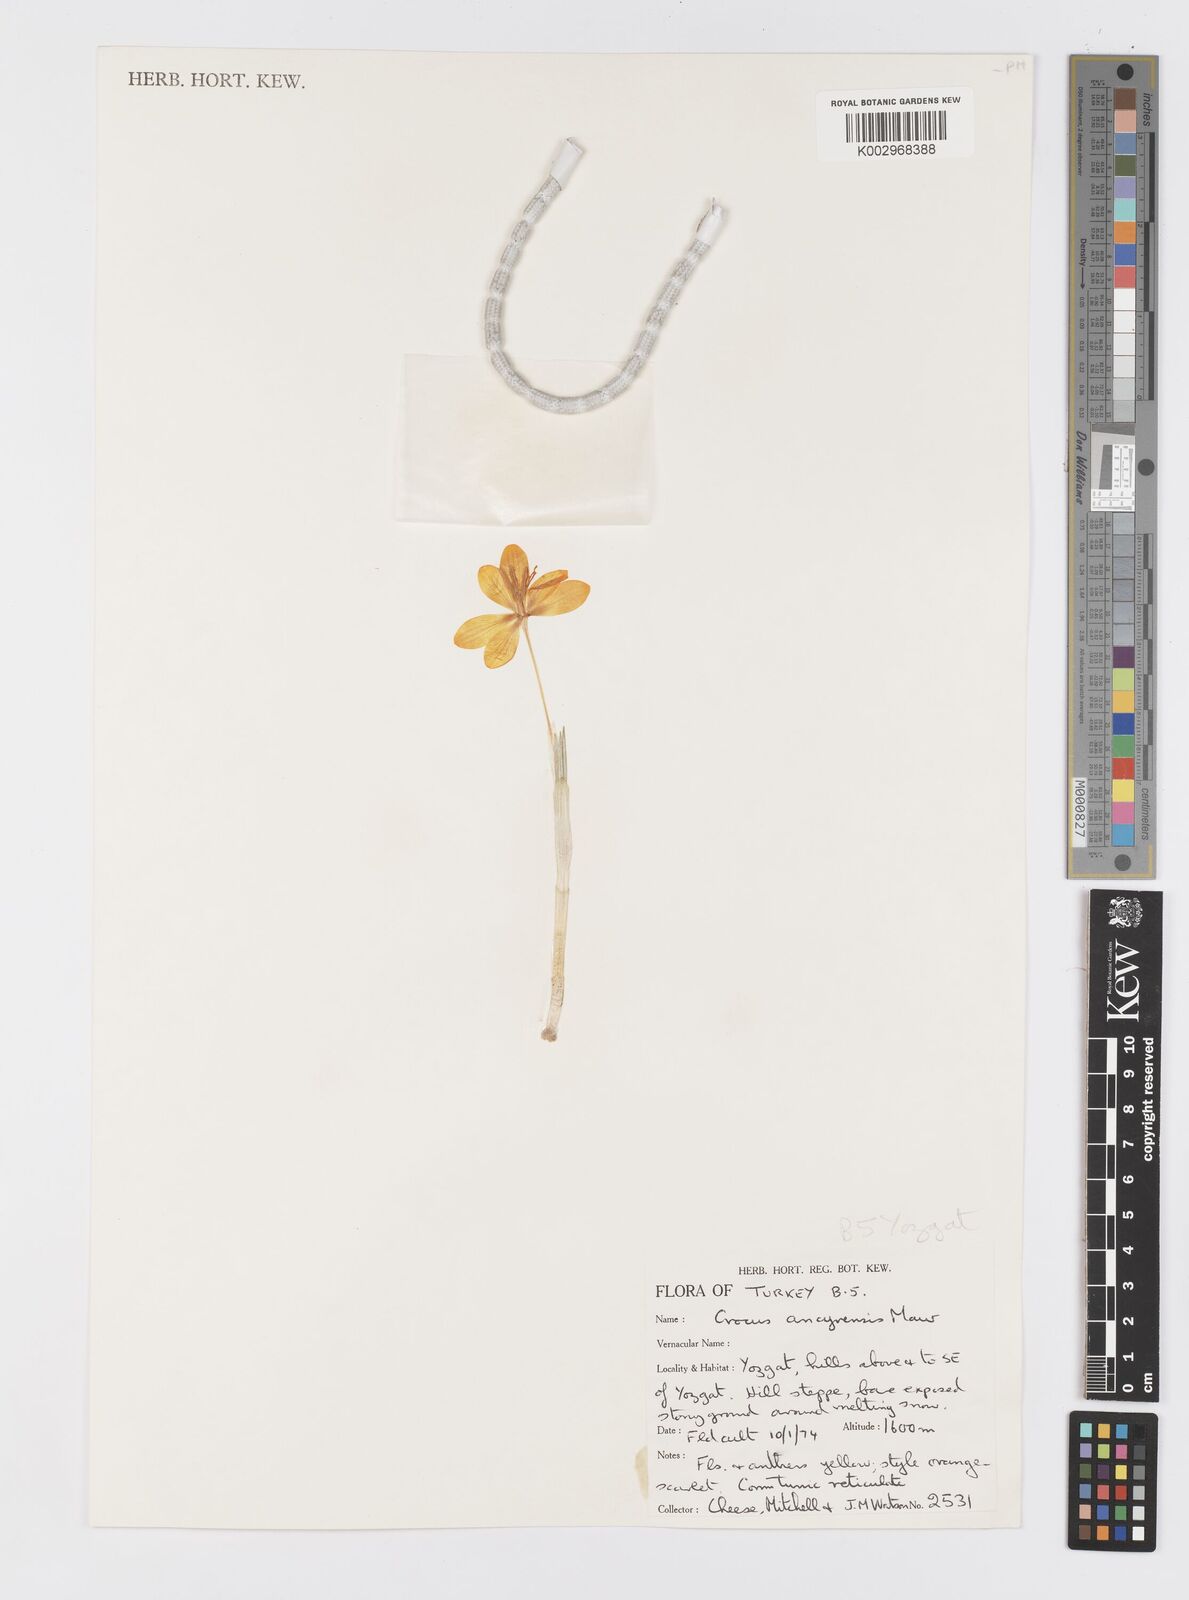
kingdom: Plantae
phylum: Tracheophyta
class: Liliopsida
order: Asparagales
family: Iridaceae
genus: Crocus
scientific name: Crocus ancyrensis
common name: Ankara crocus
